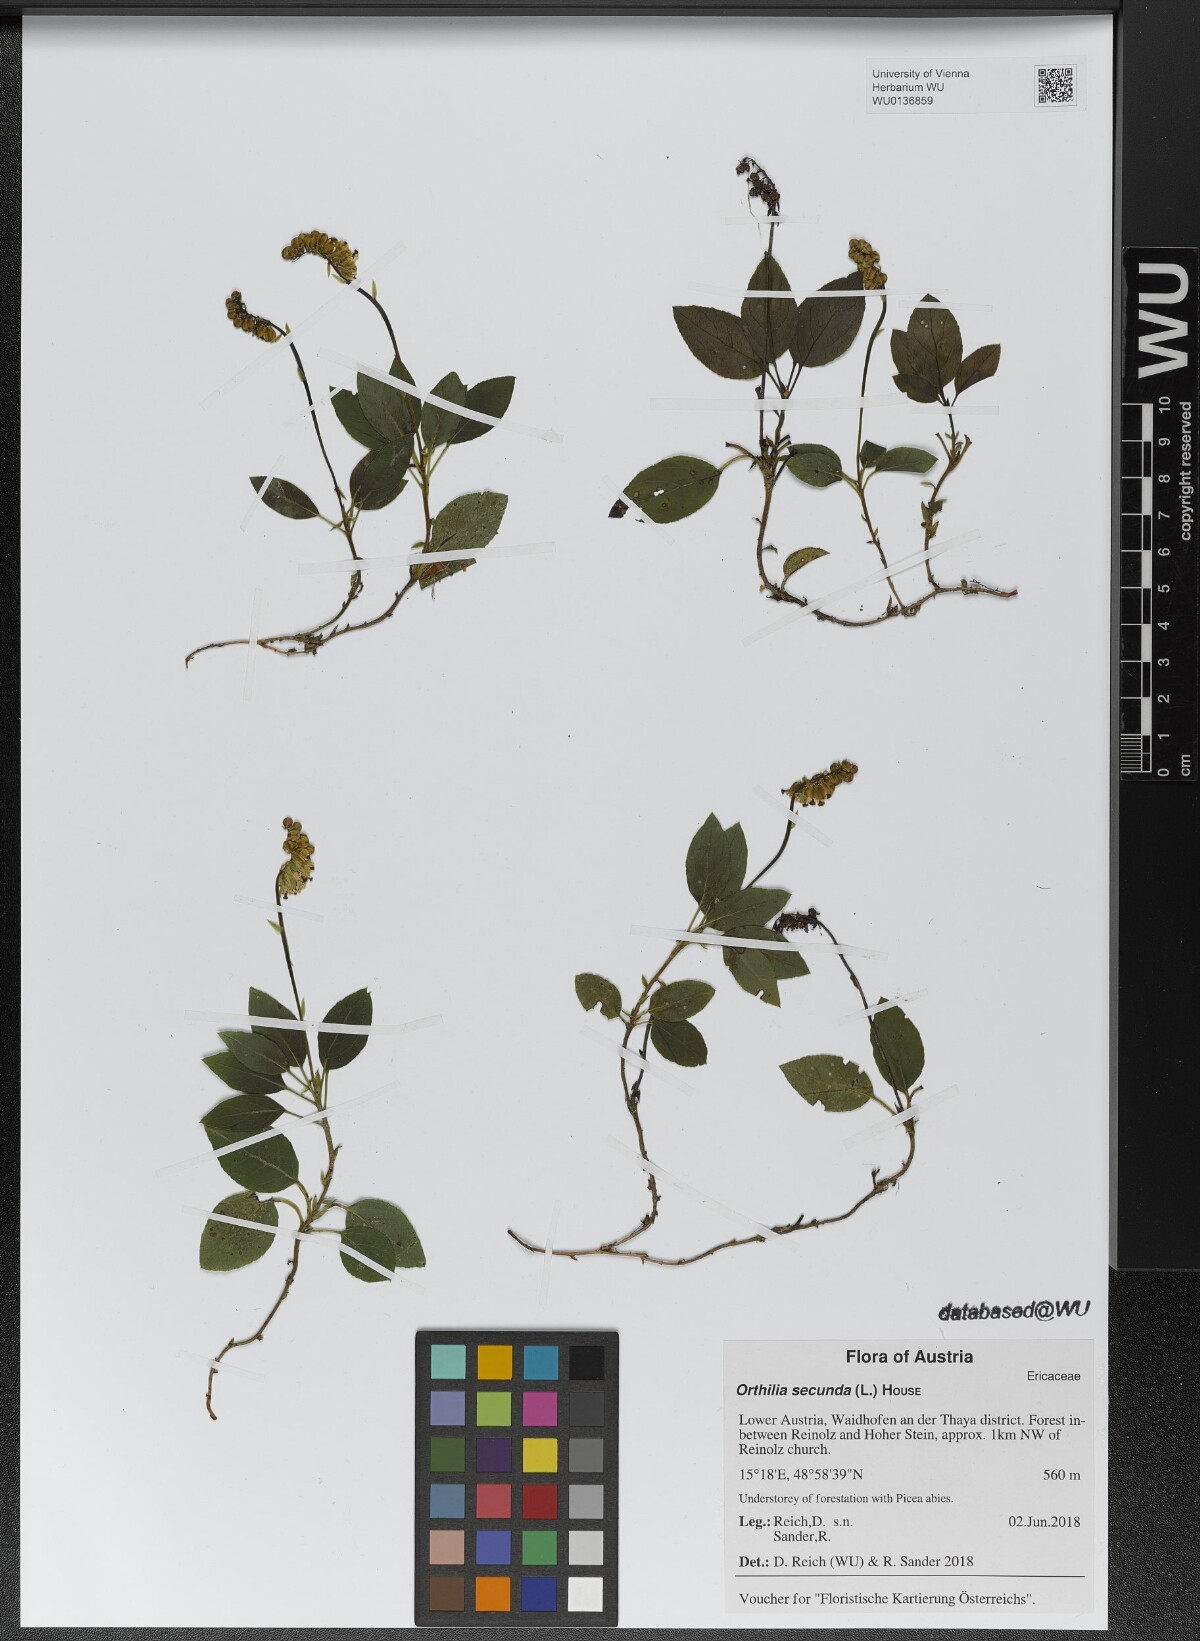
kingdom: Plantae
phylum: Tracheophyta
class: Magnoliopsida
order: Ericales
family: Ericaceae
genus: Orthilia
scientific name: Orthilia secunda
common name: One-sided orthilia
